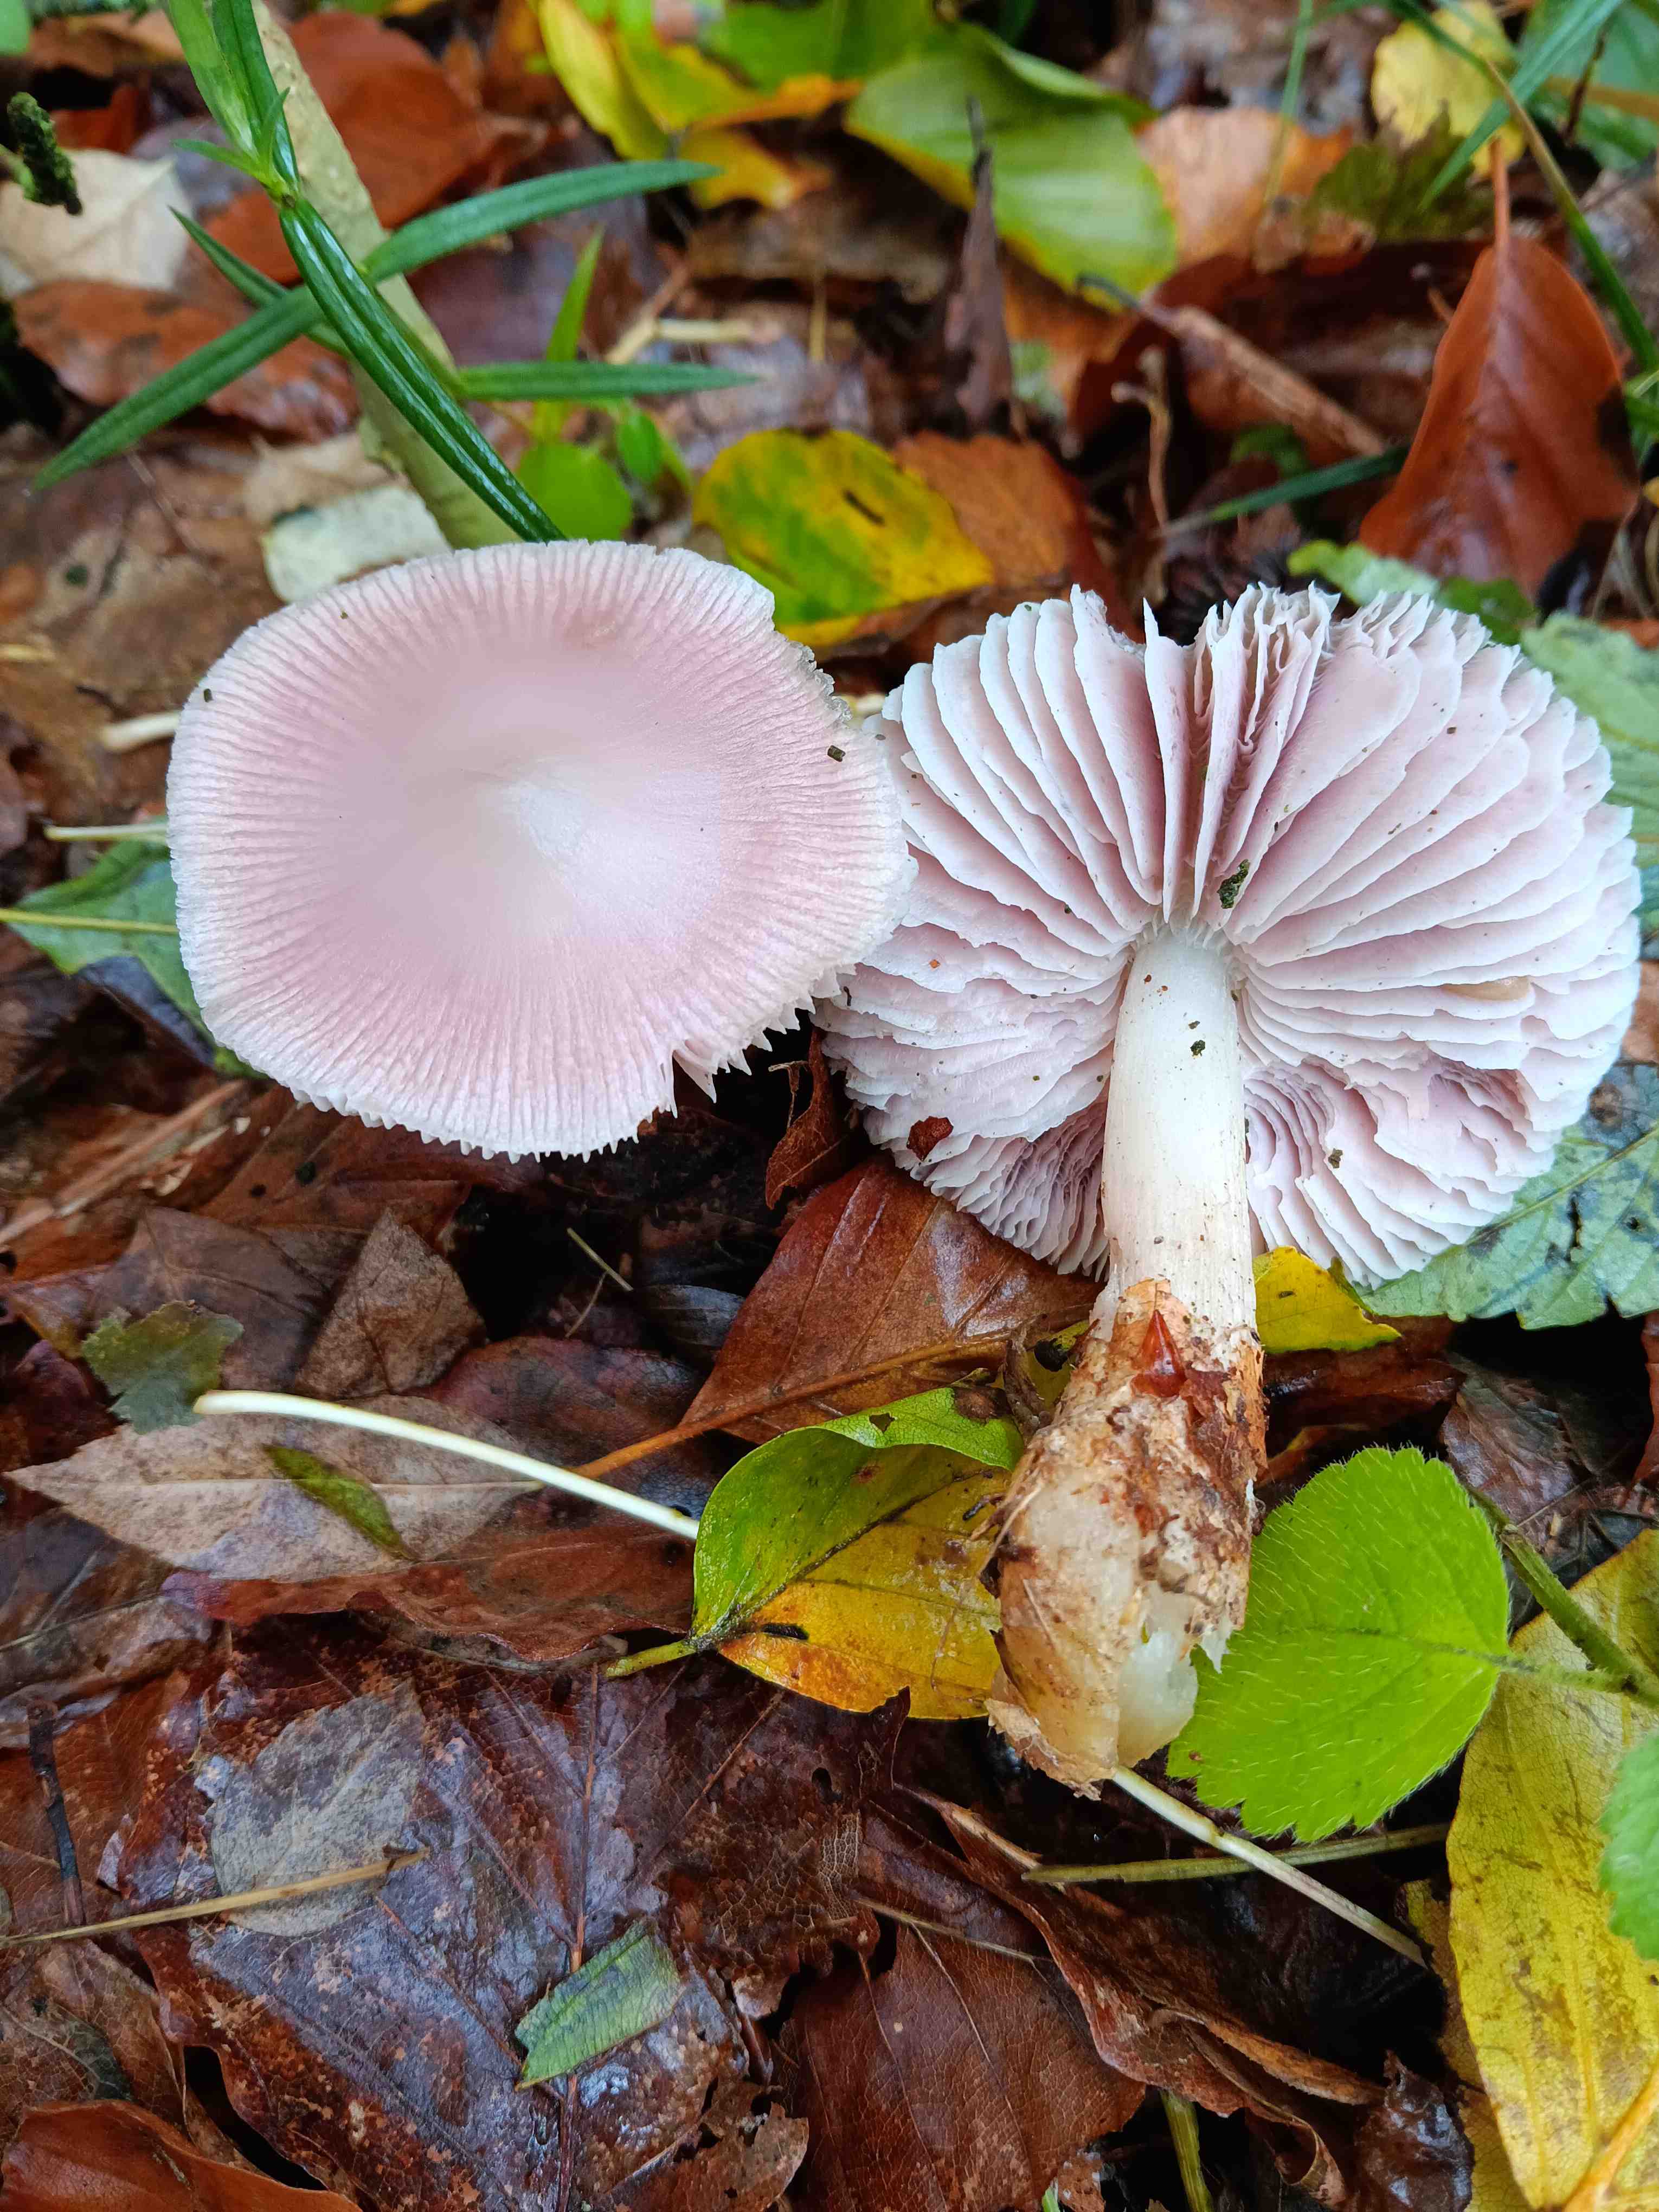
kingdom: Fungi
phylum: Basidiomycota
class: Agaricomycetes
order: Agaricales
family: Mycenaceae
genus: Mycena
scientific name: Mycena rosea
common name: rosa huesvamp
